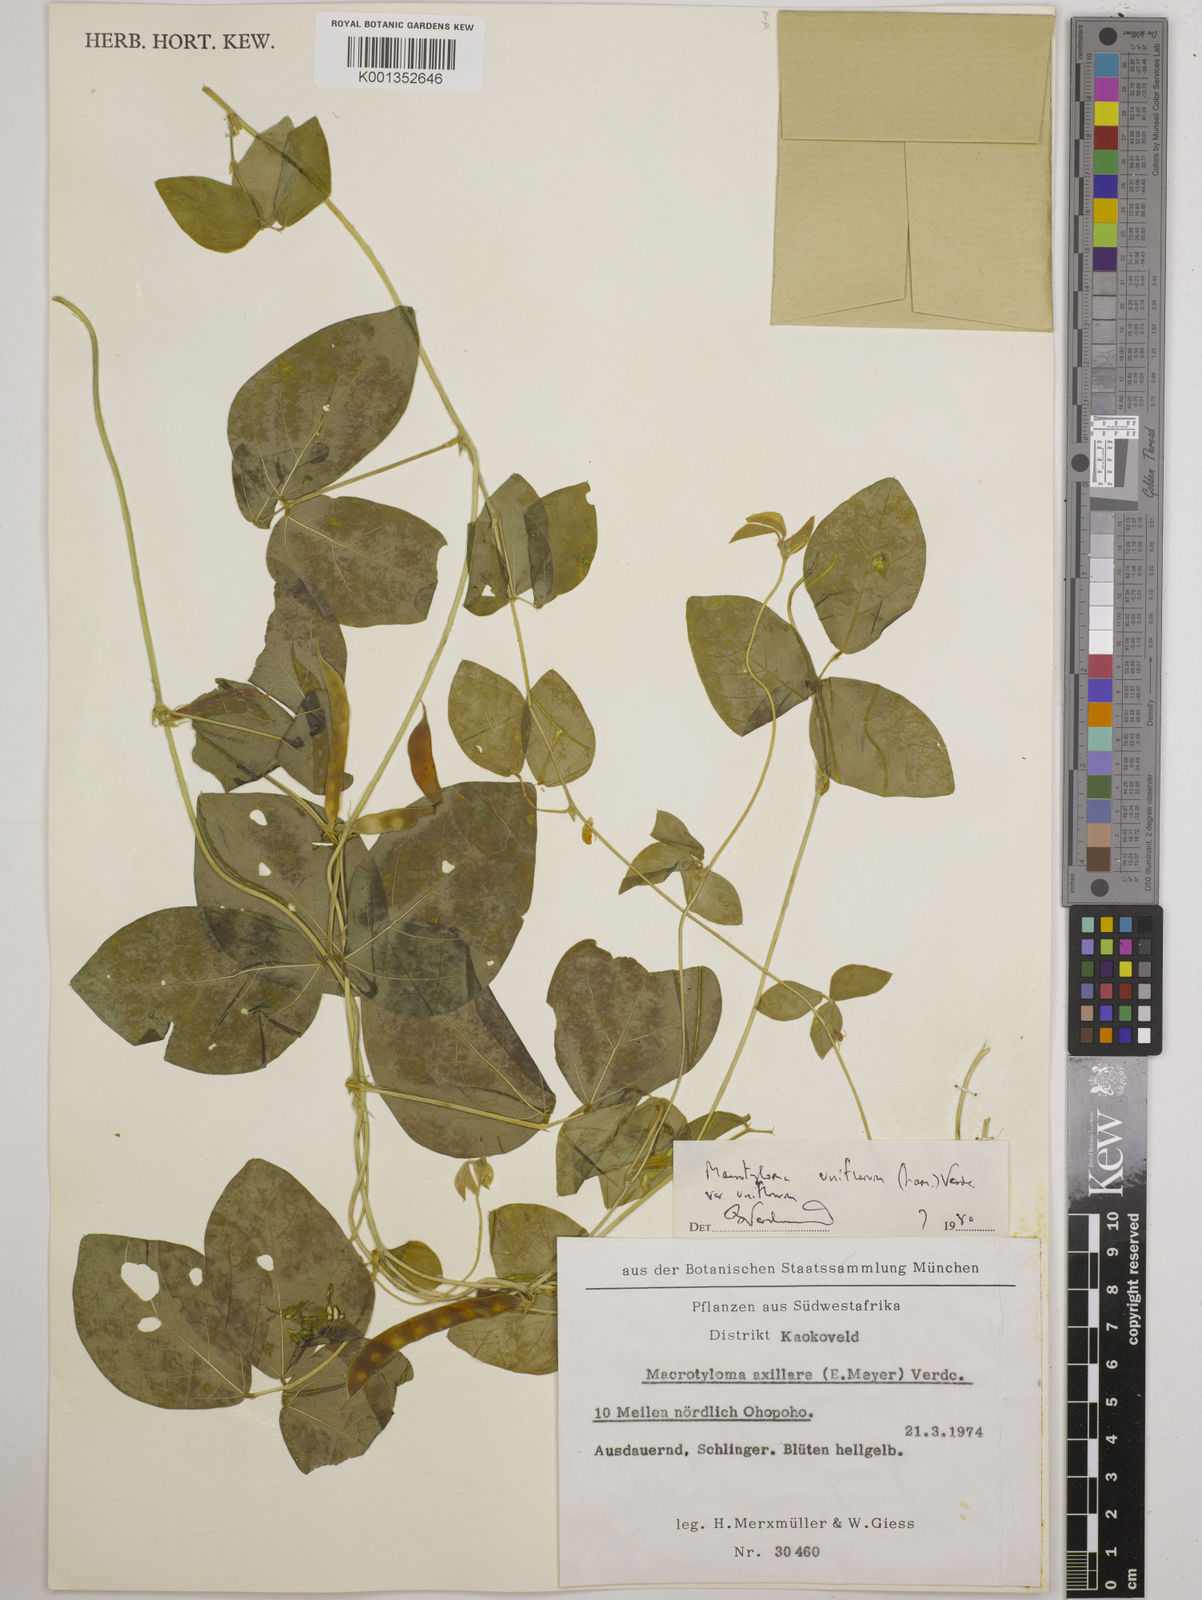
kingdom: Plantae
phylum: Tracheophyta
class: Magnoliopsida
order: Fabales
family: Fabaceae
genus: Macrotyloma
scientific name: Macrotyloma uniflorum
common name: Horse gram
